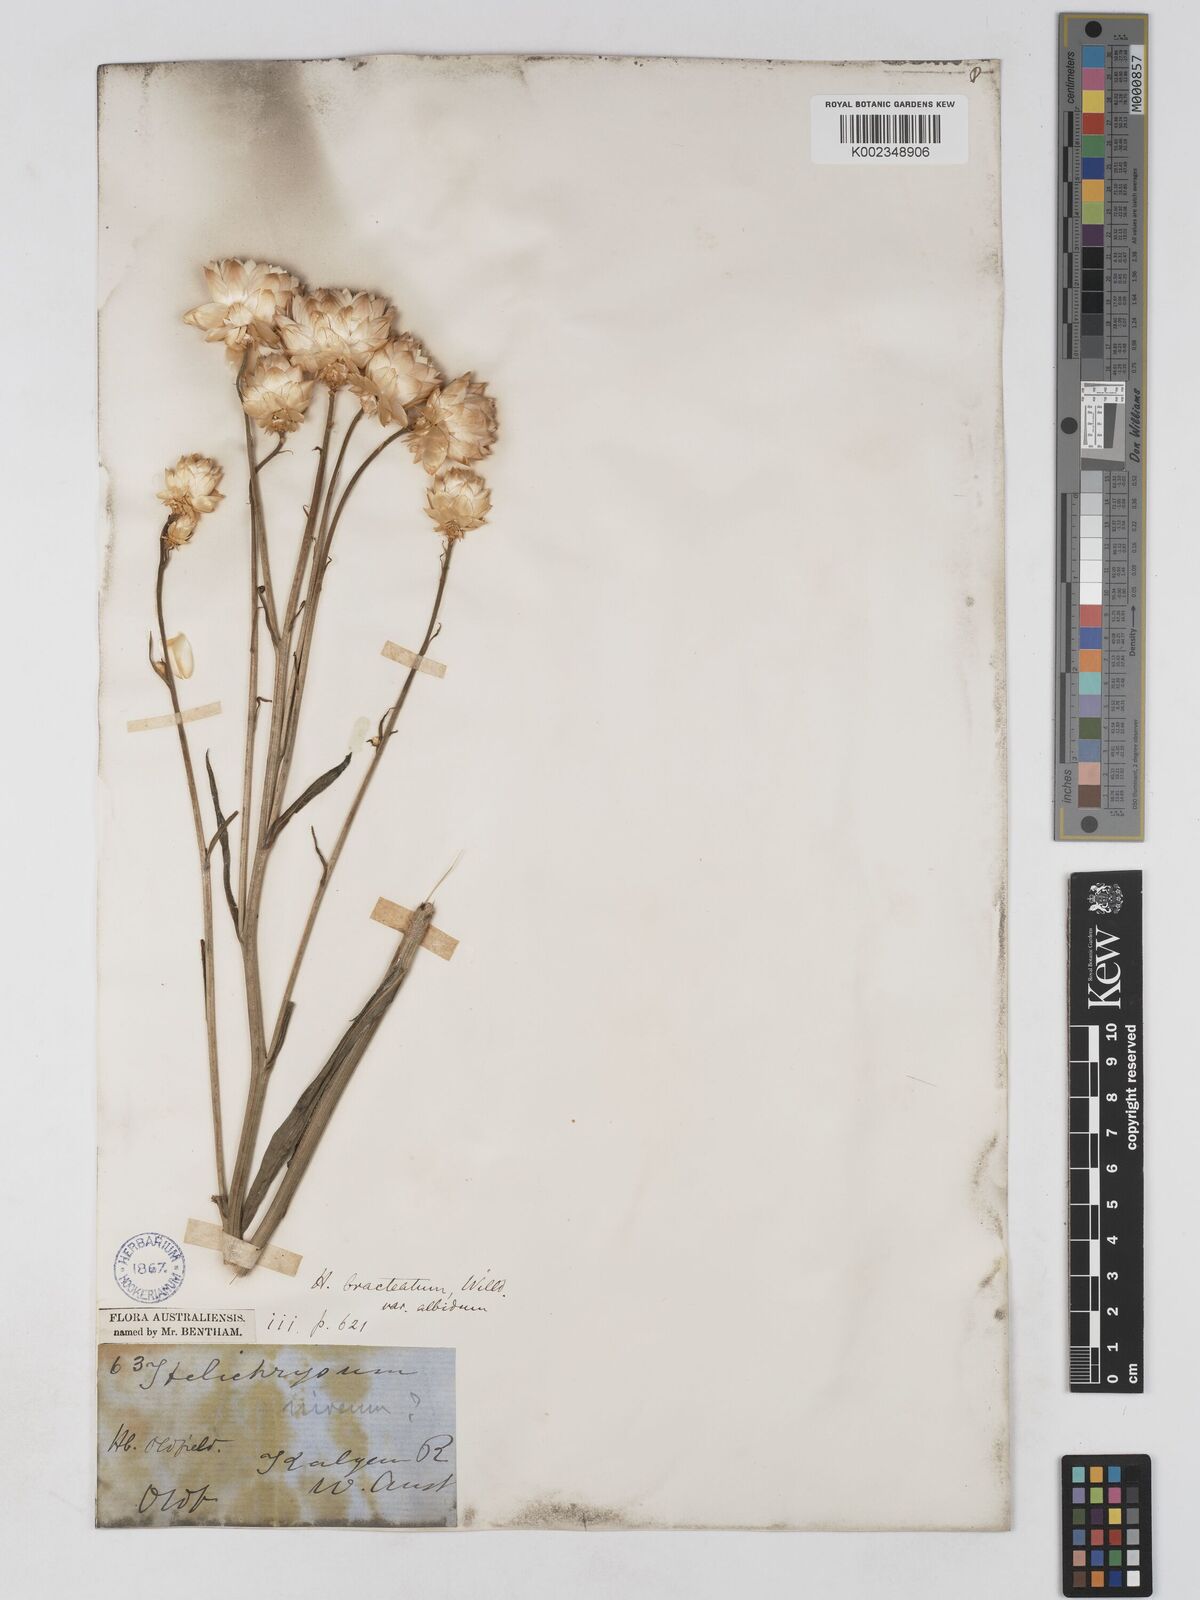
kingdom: Plantae
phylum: Tracheophyta
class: Magnoliopsida
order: Asterales
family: Asteraceae
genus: Xerochrysum
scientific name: Xerochrysum bracteatum
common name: Bracted strawflower
